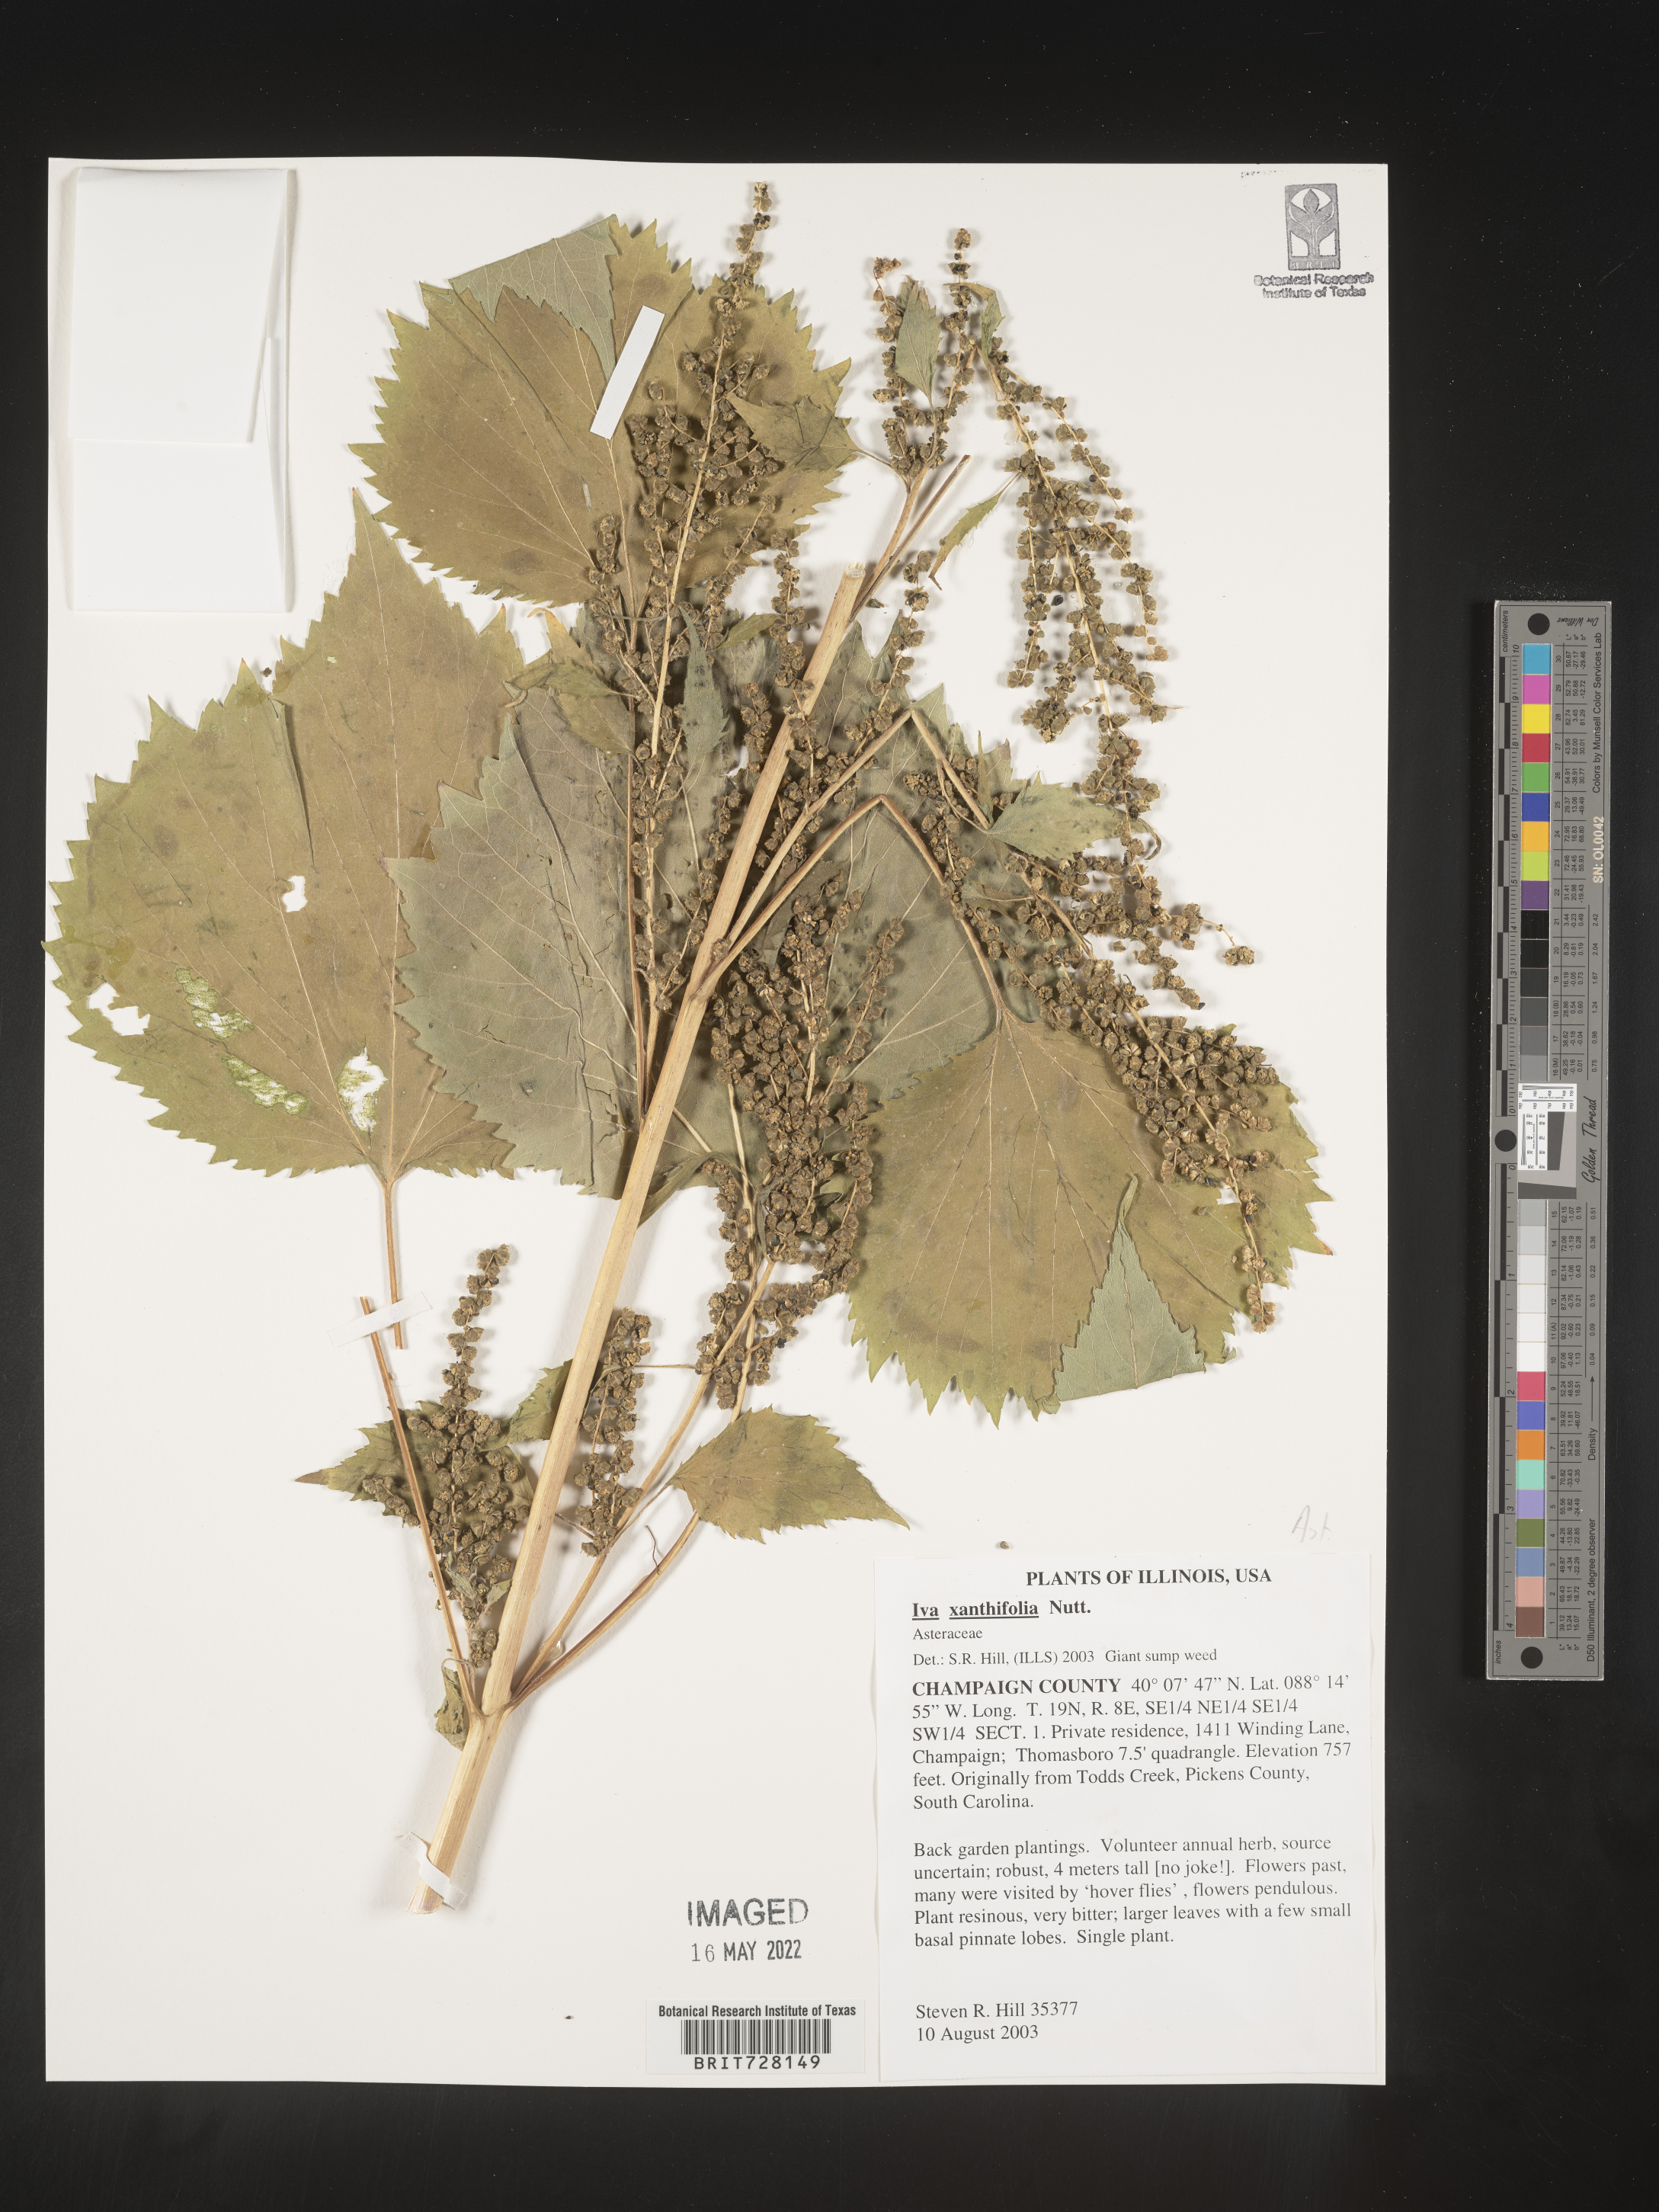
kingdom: Plantae
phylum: Tracheophyta
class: Magnoliopsida
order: Asterales
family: Asteraceae
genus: Cyclachaena
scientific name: Cyclachaena xanthiifolia
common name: Giant sumpweed
